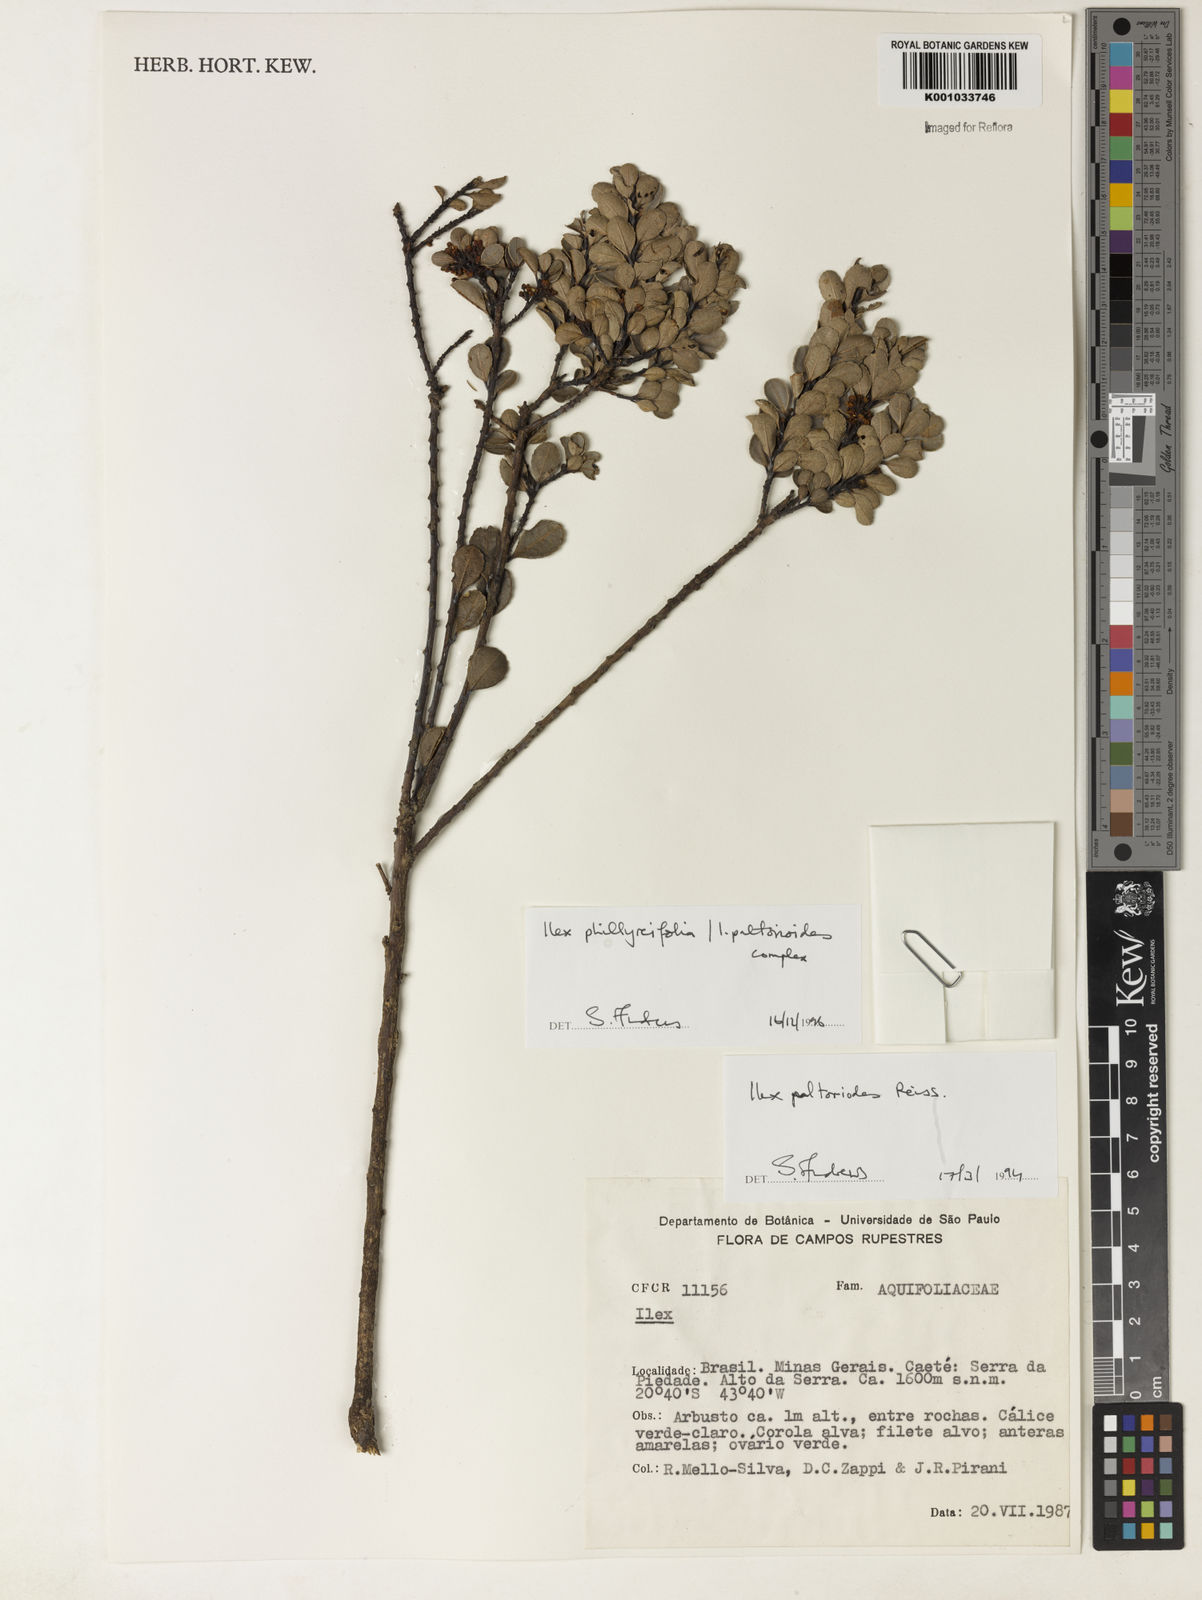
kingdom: Plantae
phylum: Tracheophyta
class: Magnoliopsida
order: Aquifoliales
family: Aquifoliaceae
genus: Ilex
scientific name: Ilex
